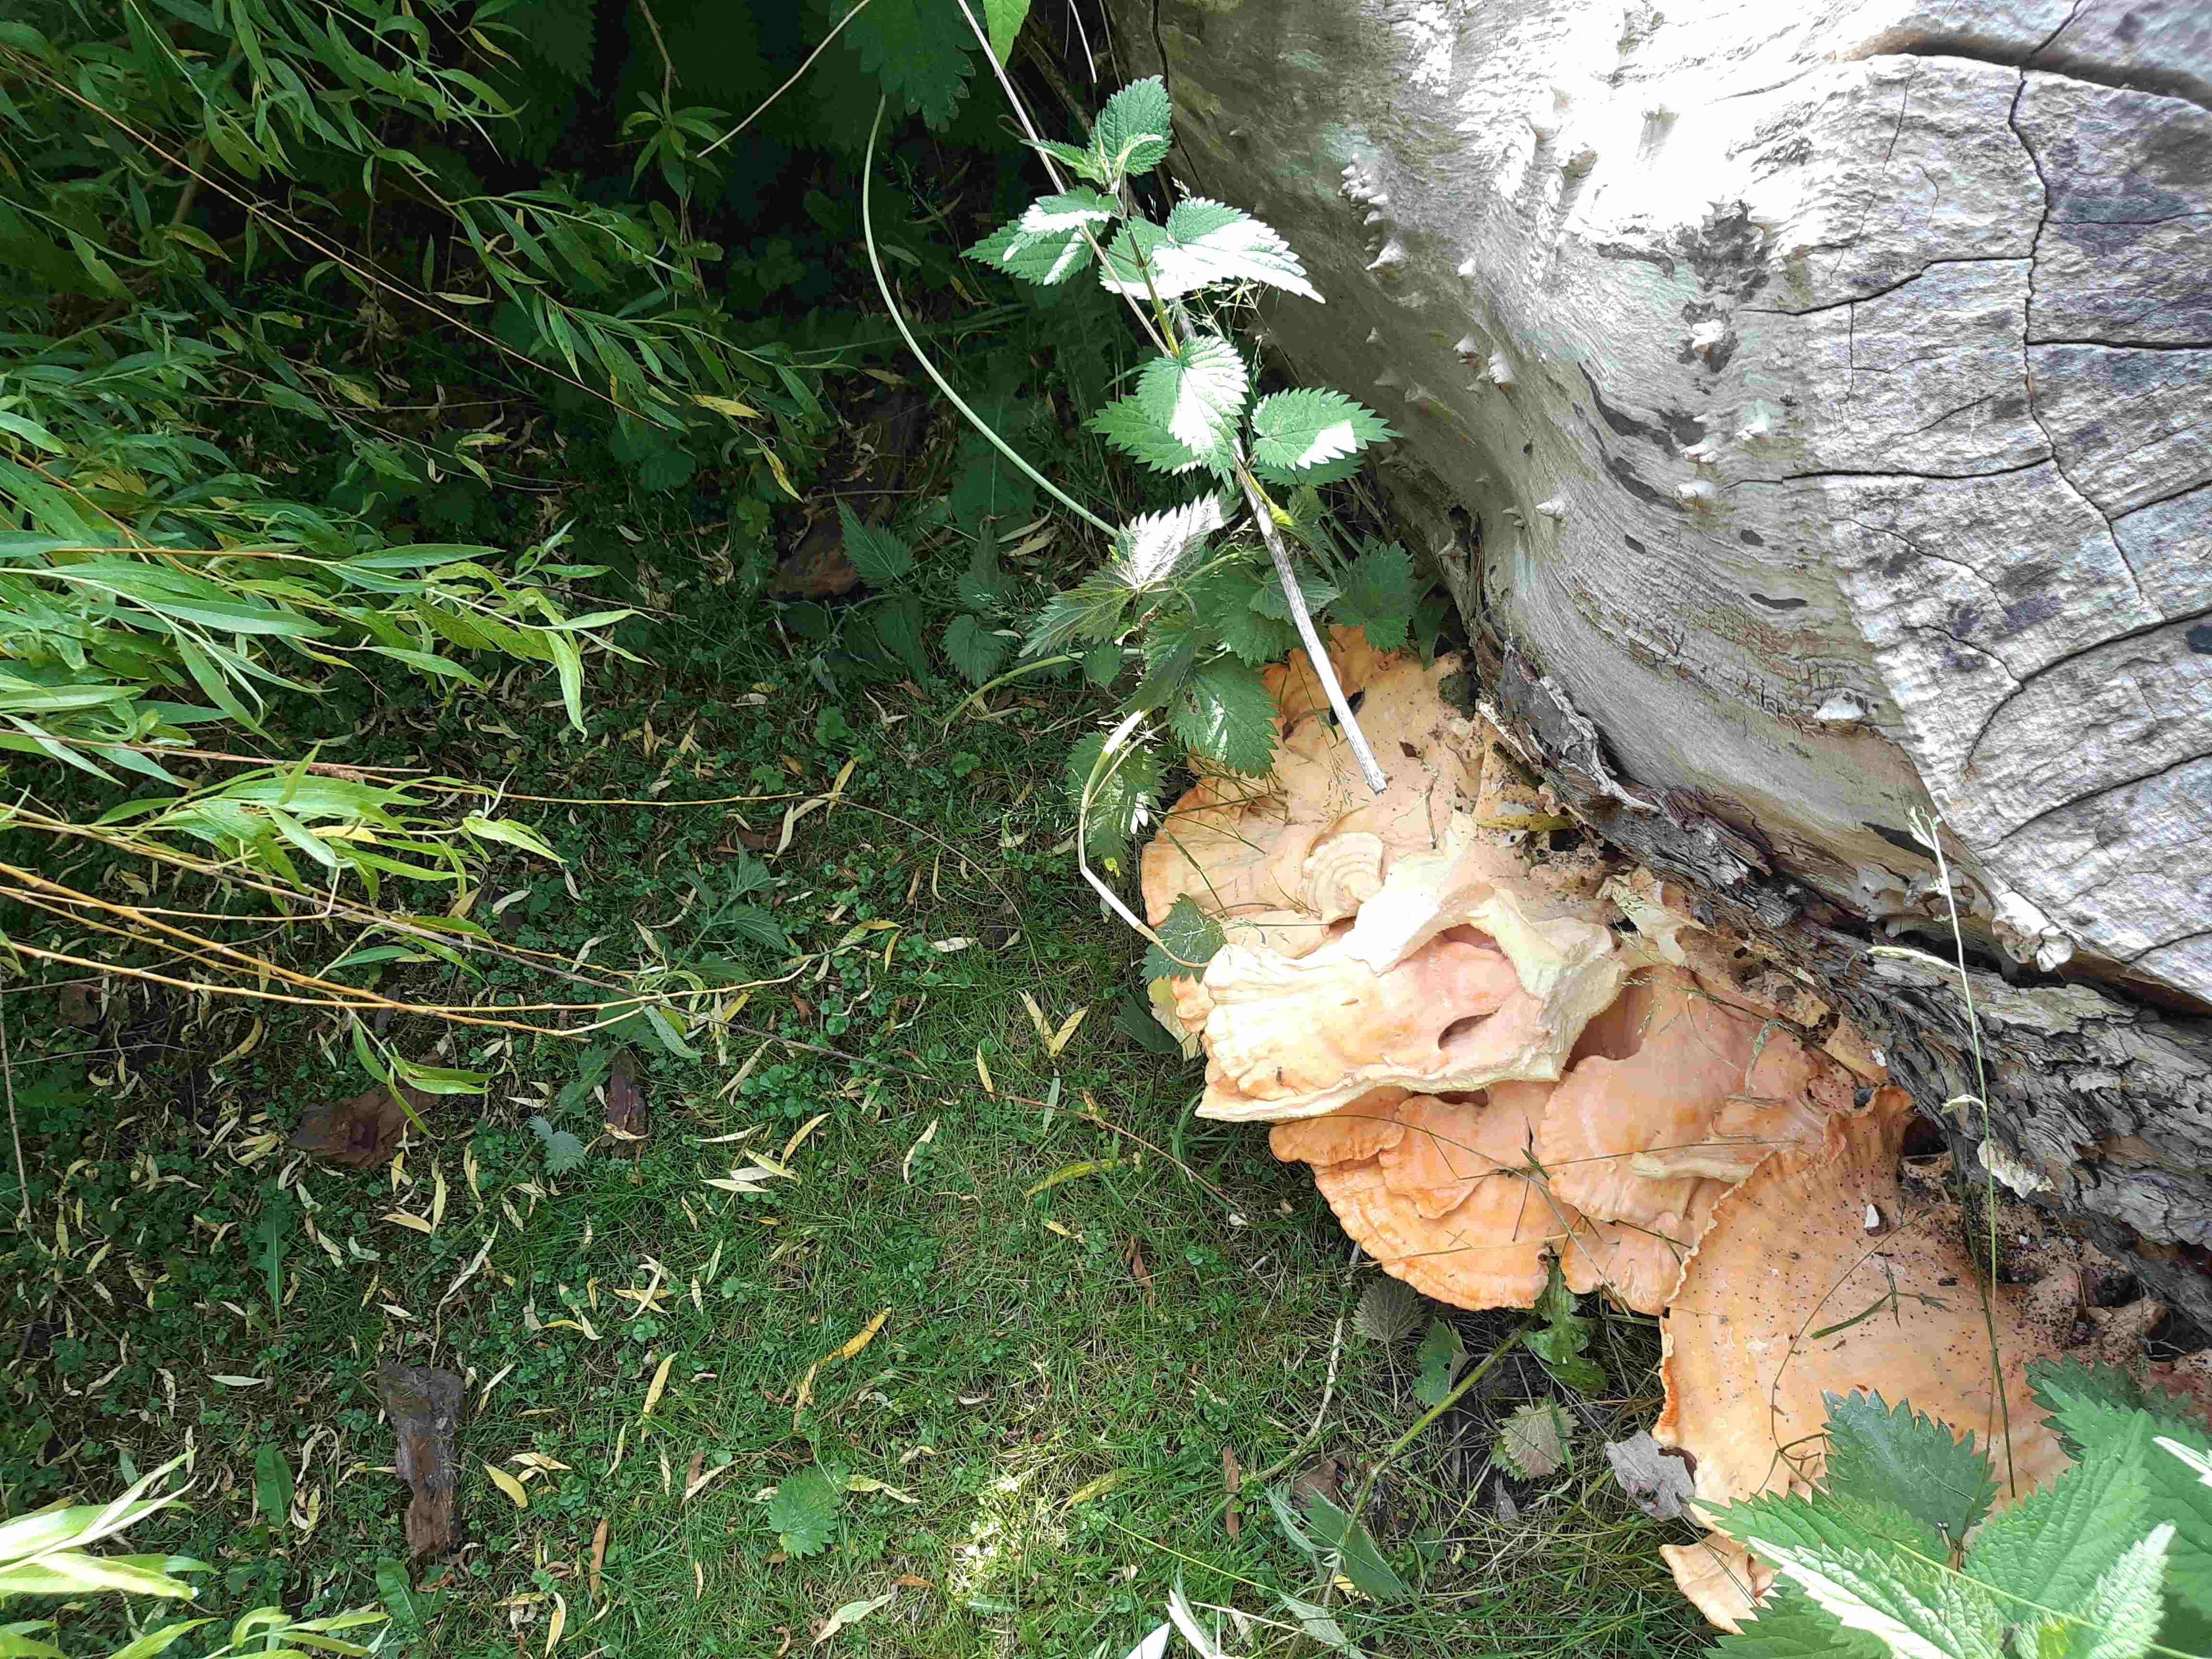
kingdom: Fungi
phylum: Basidiomycota
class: Agaricomycetes
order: Polyporales
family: Laetiporaceae
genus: Laetiporus
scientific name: Laetiporus sulphureus
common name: svovlporesvamp
